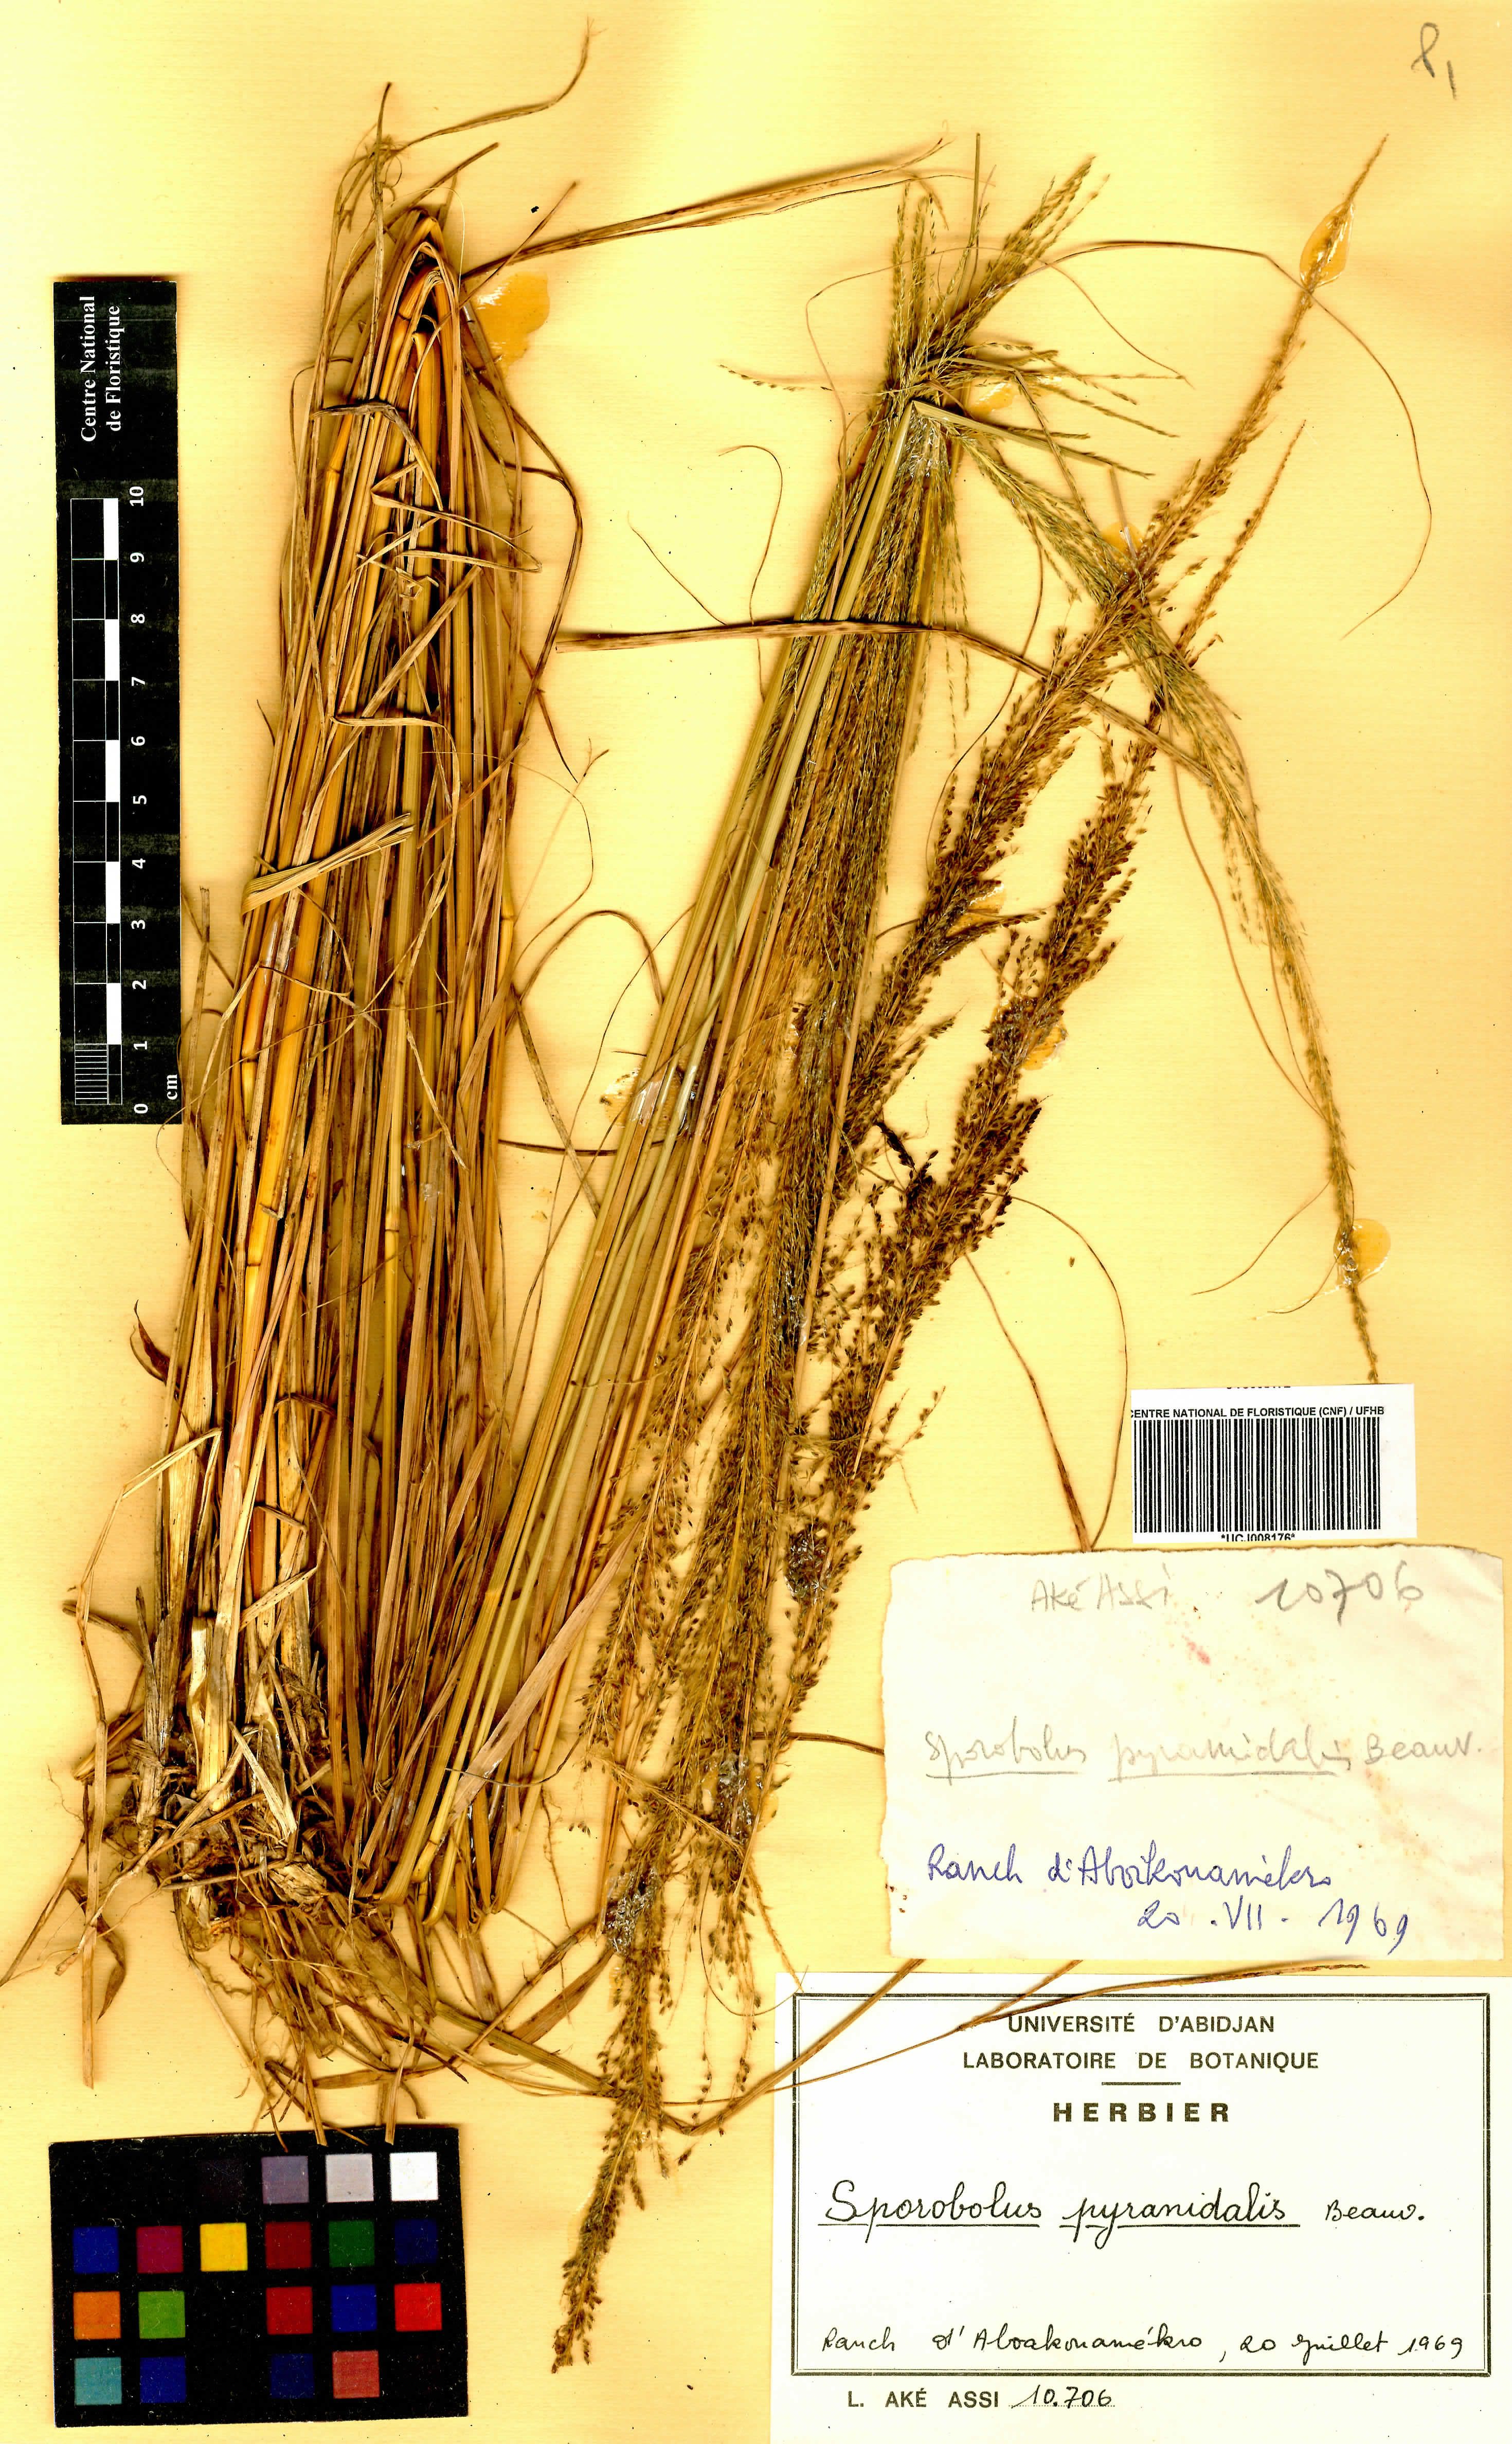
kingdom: Plantae
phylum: Tracheophyta
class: Liliopsida
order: Poales
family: Poaceae
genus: Sporobolus
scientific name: Sporobolus pyramidalis
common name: West indian dropseed
